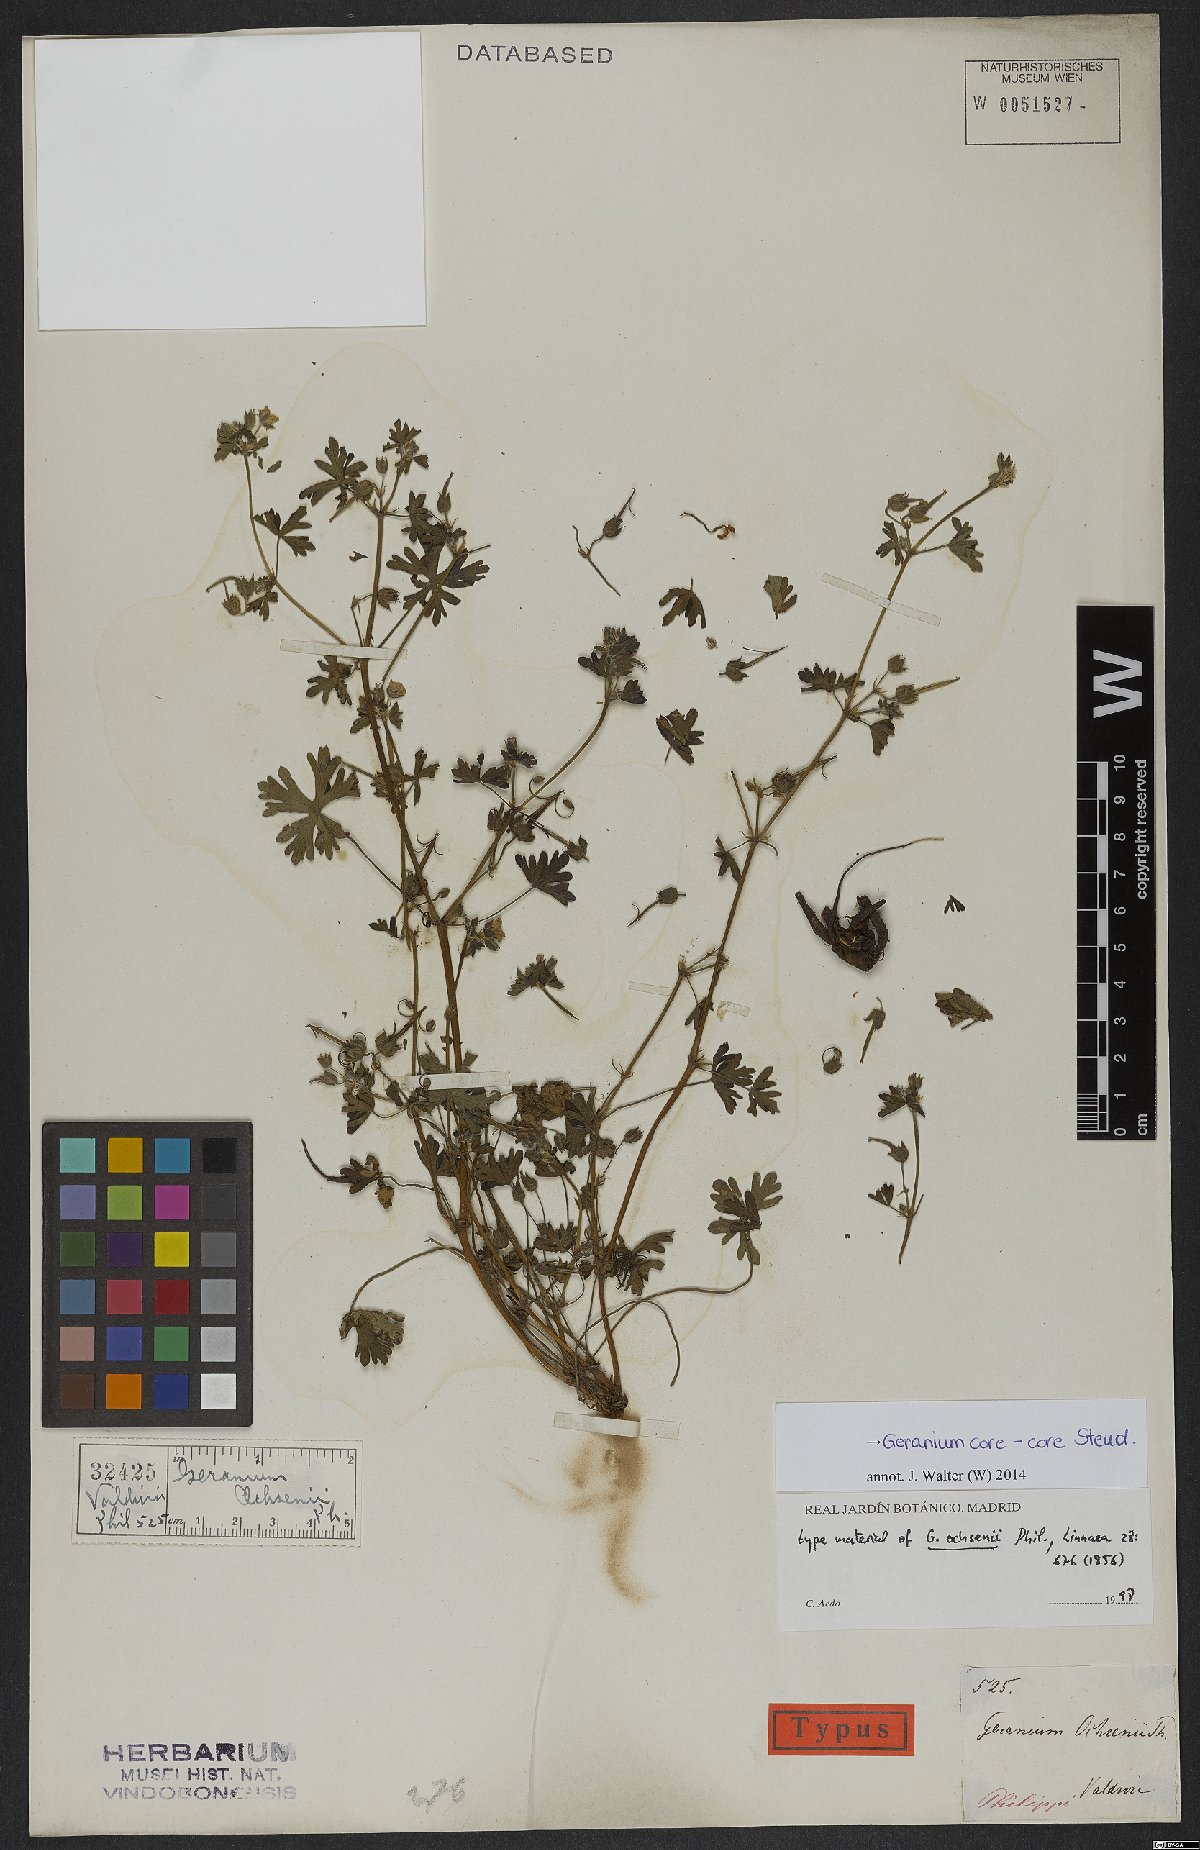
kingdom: Plantae
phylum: Tracheophyta
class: Magnoliopsida
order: Geraniales
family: Geraniaceae
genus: Geranium
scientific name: Geranium core-core
